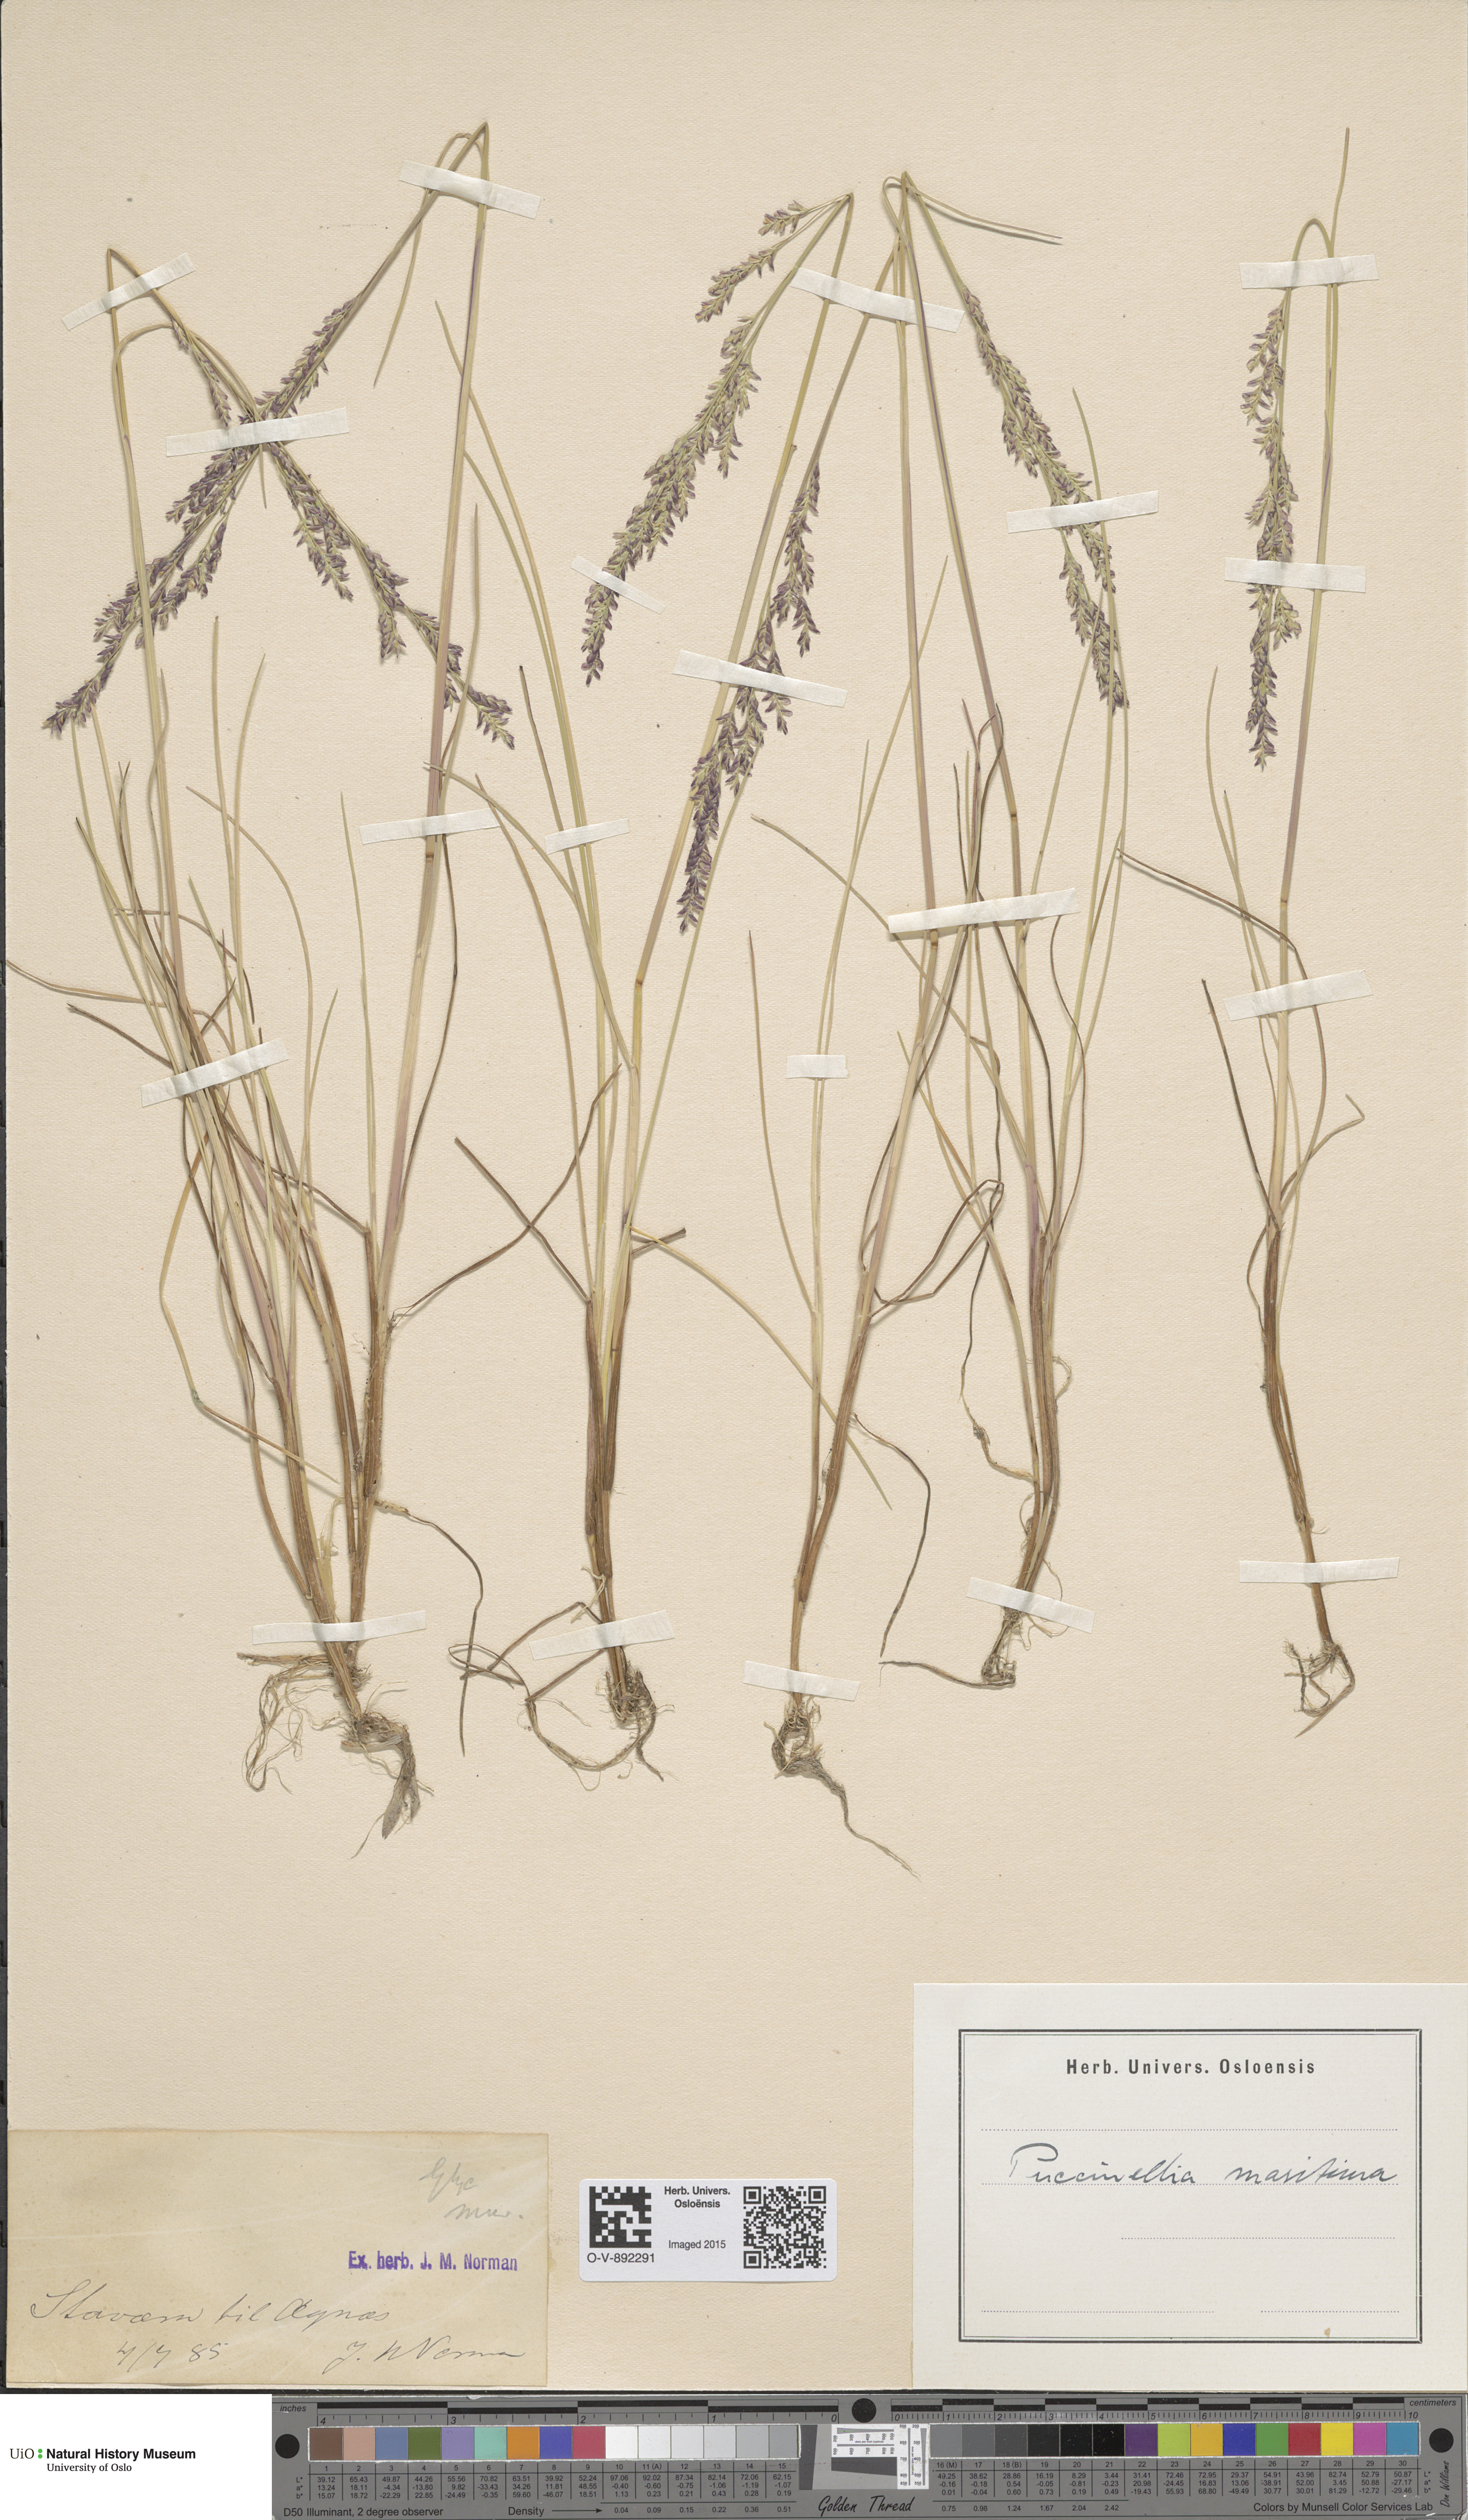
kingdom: Plantae
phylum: Tracheophyta
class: Liliopsida
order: Poales
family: Poaceae
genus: Puccinellia
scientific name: Puccinellia maritima
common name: Common saltmarsh grass
